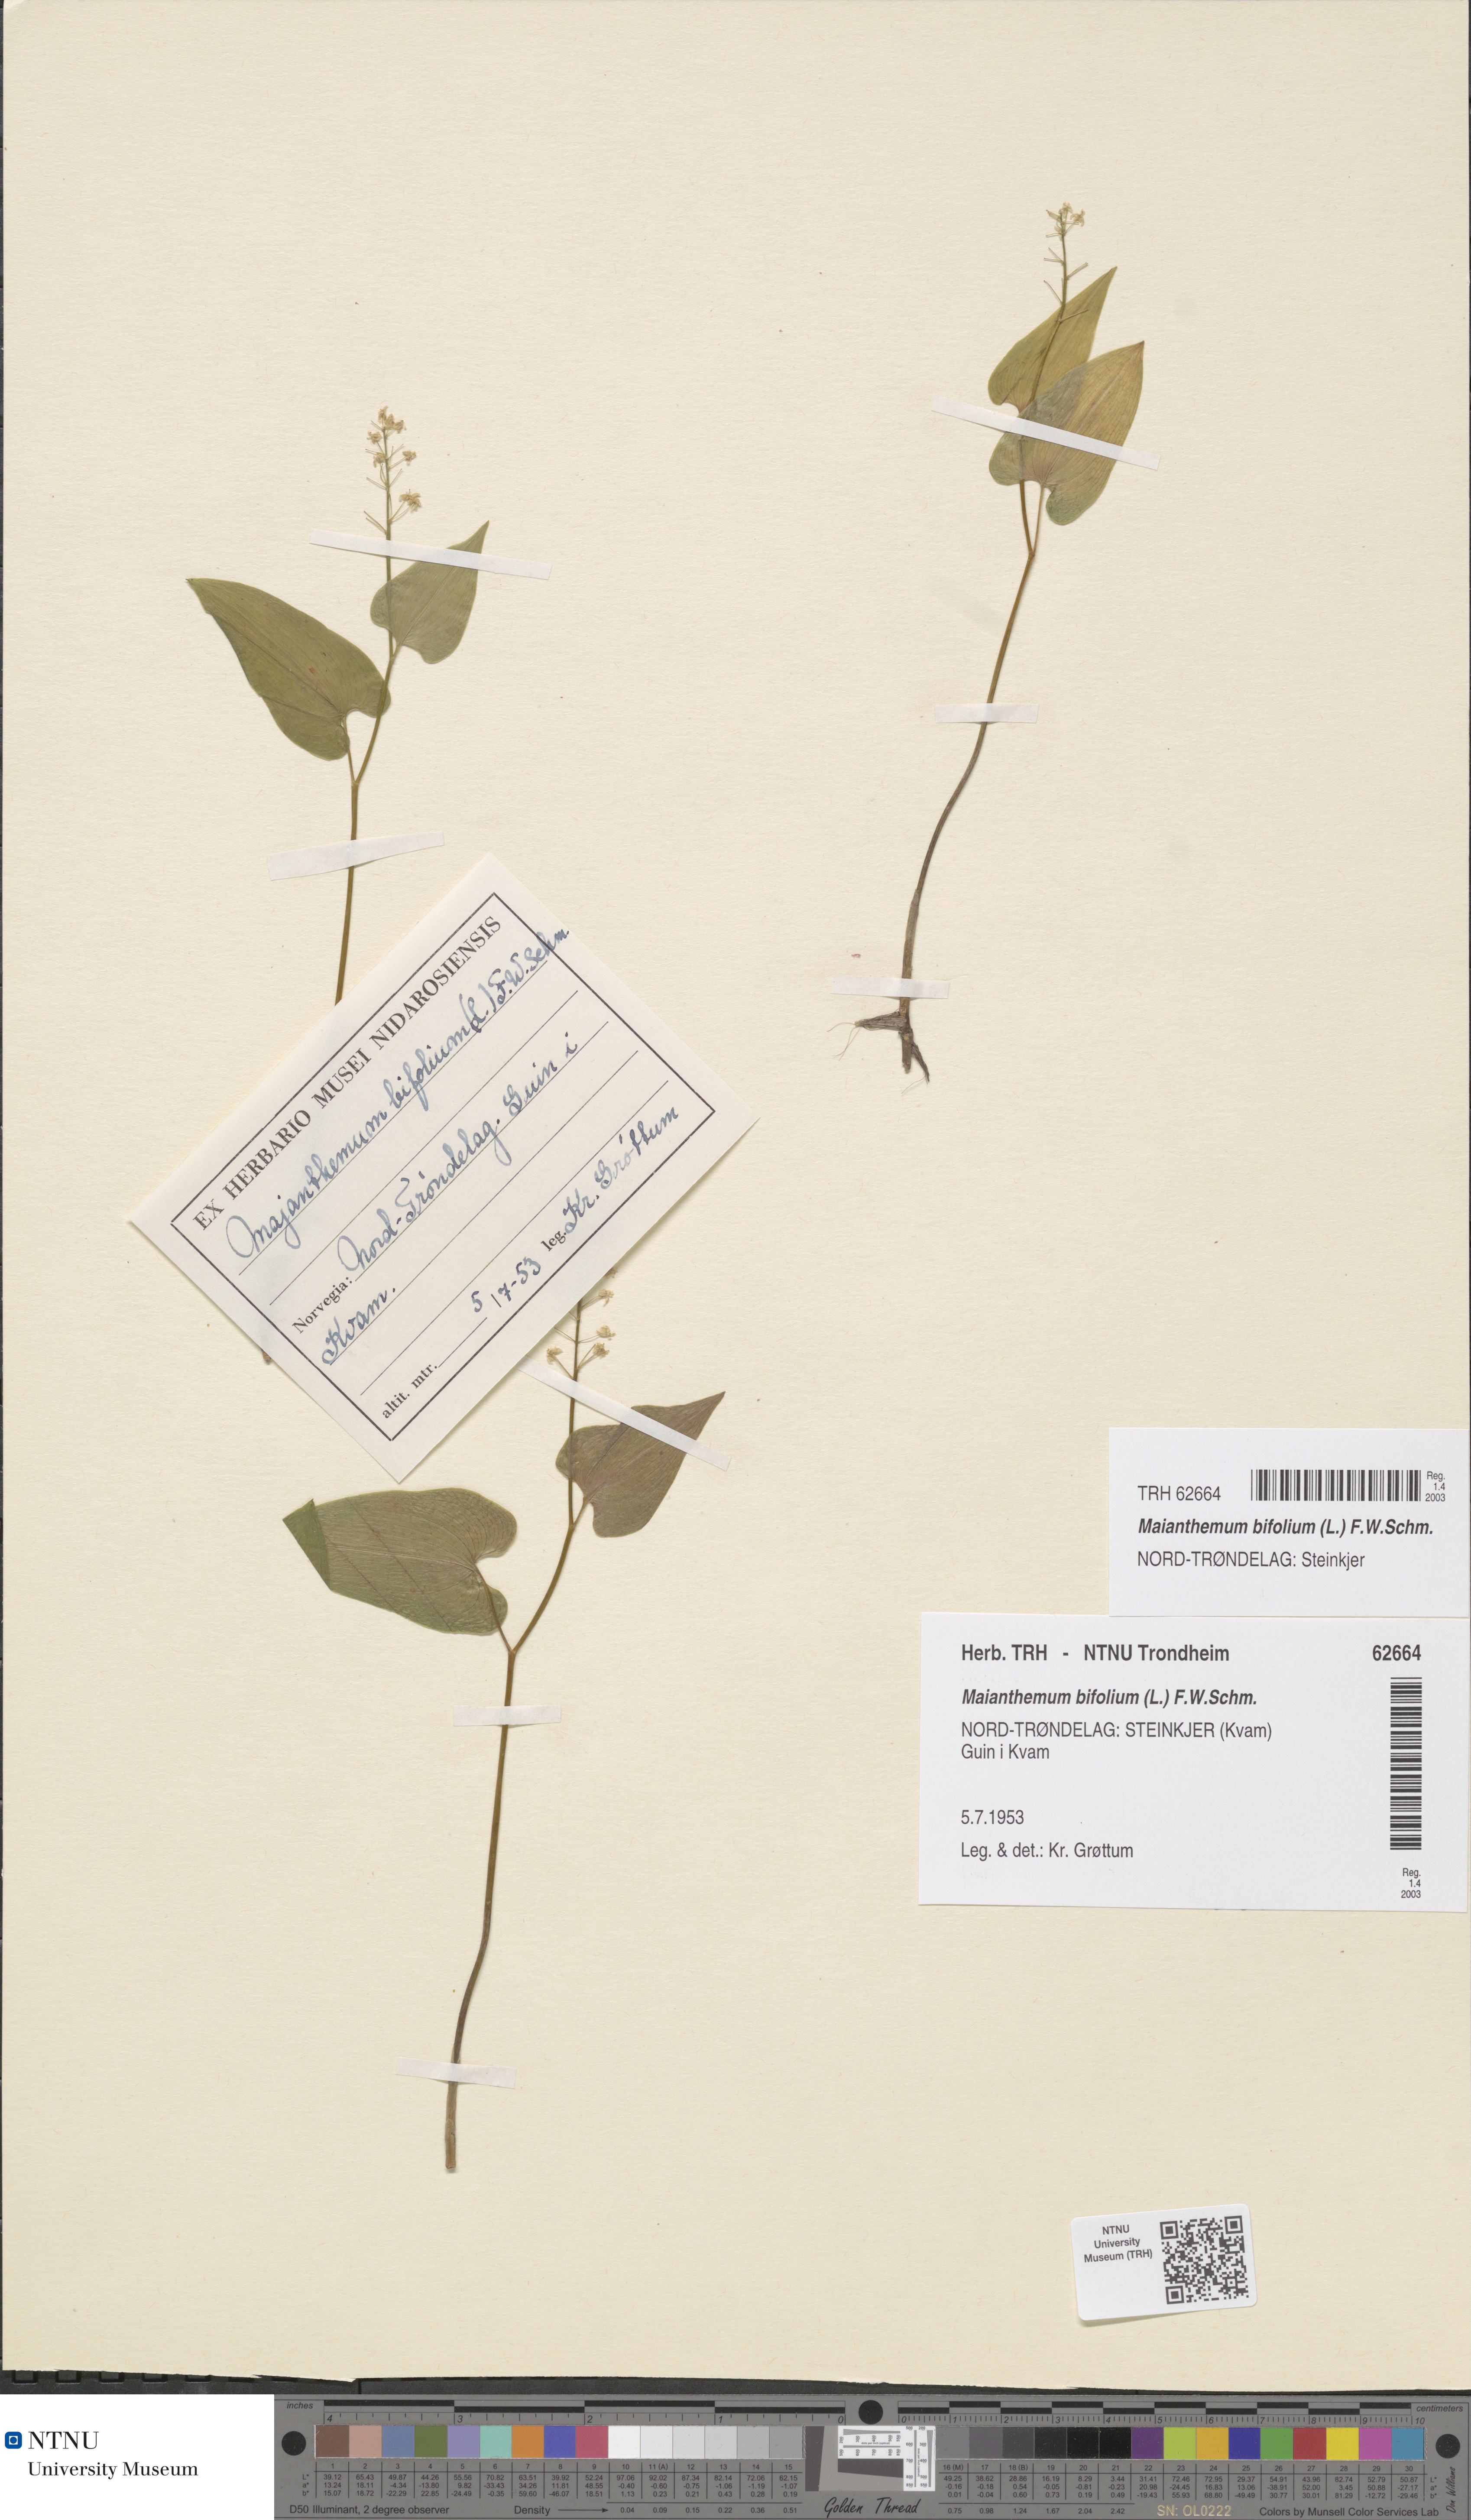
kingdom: Plantae
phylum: Tracheophyta
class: Liliopsida
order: Asparagales
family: Asparagaceae
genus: Maianthemum
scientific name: Maianthemum bifolium
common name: May lily
